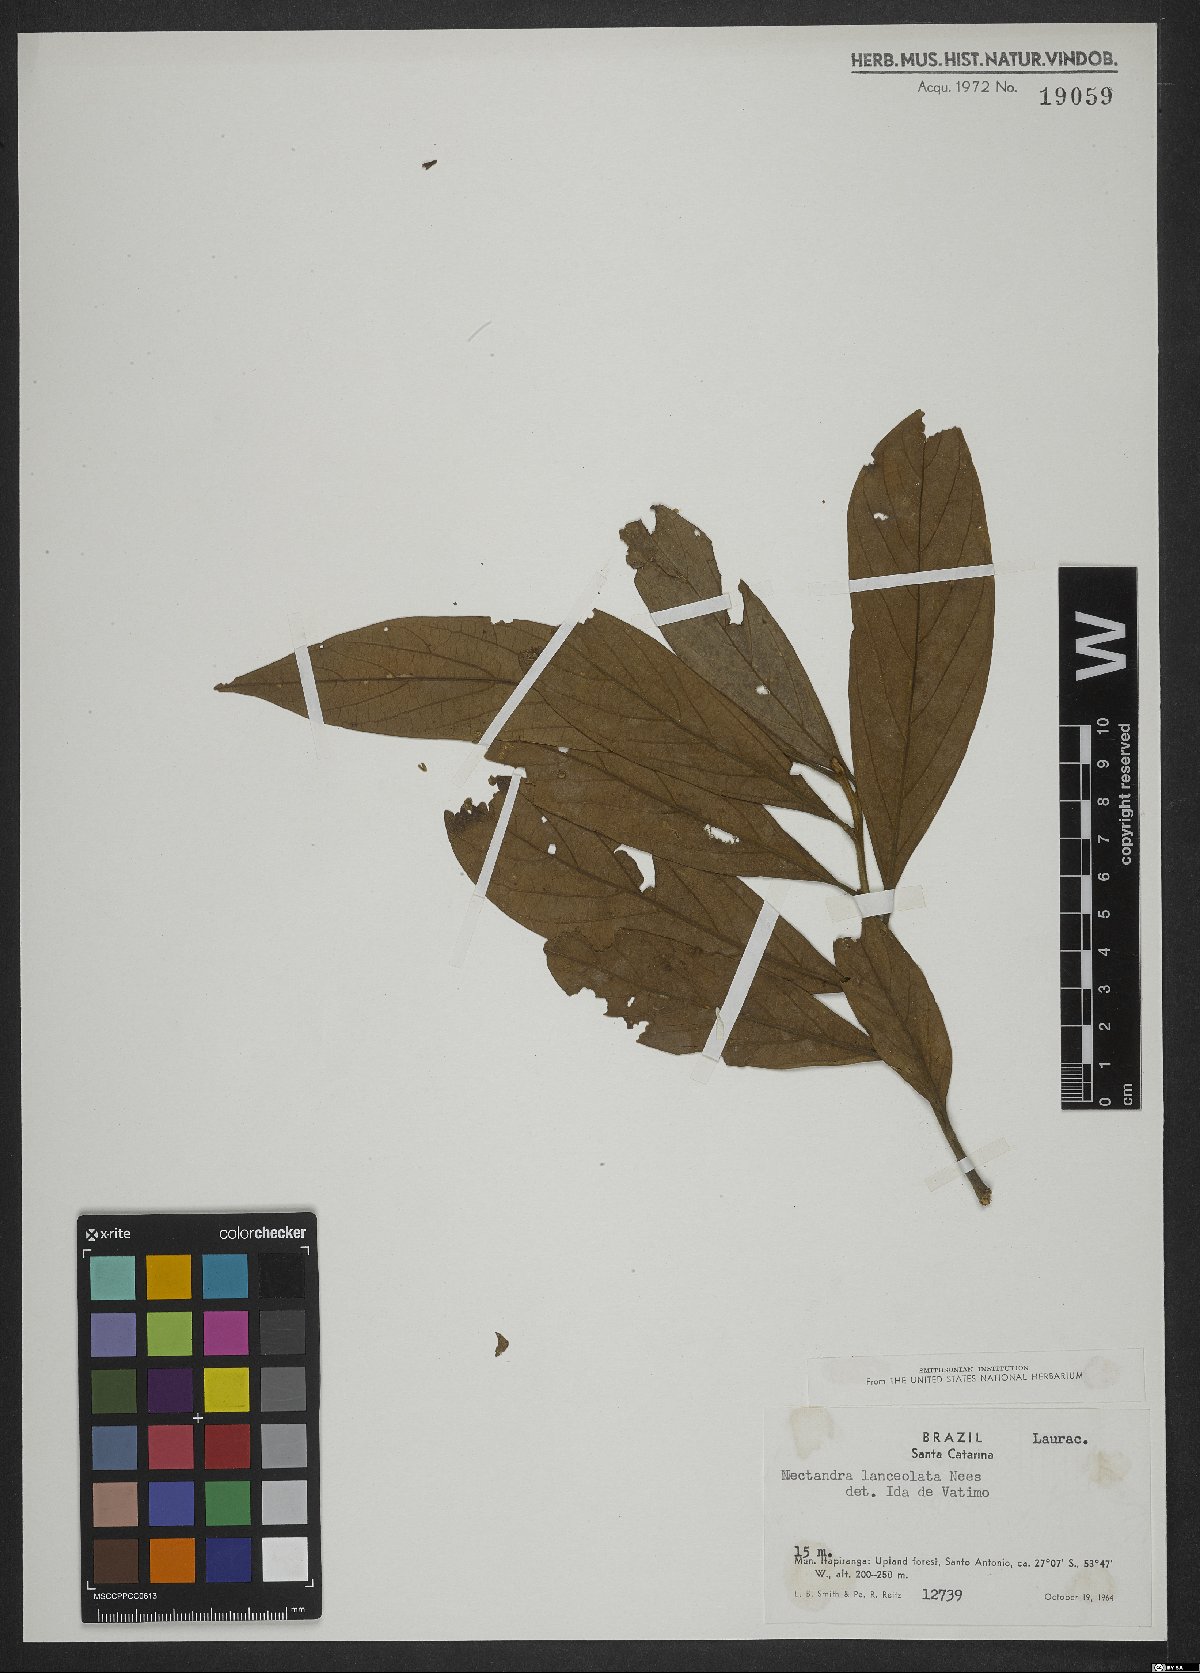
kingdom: Plantae
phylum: Tracheophyta
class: Magnoliopsida
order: Laurales
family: Lauraceae
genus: Nectandra
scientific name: Nectandra lanceolata
